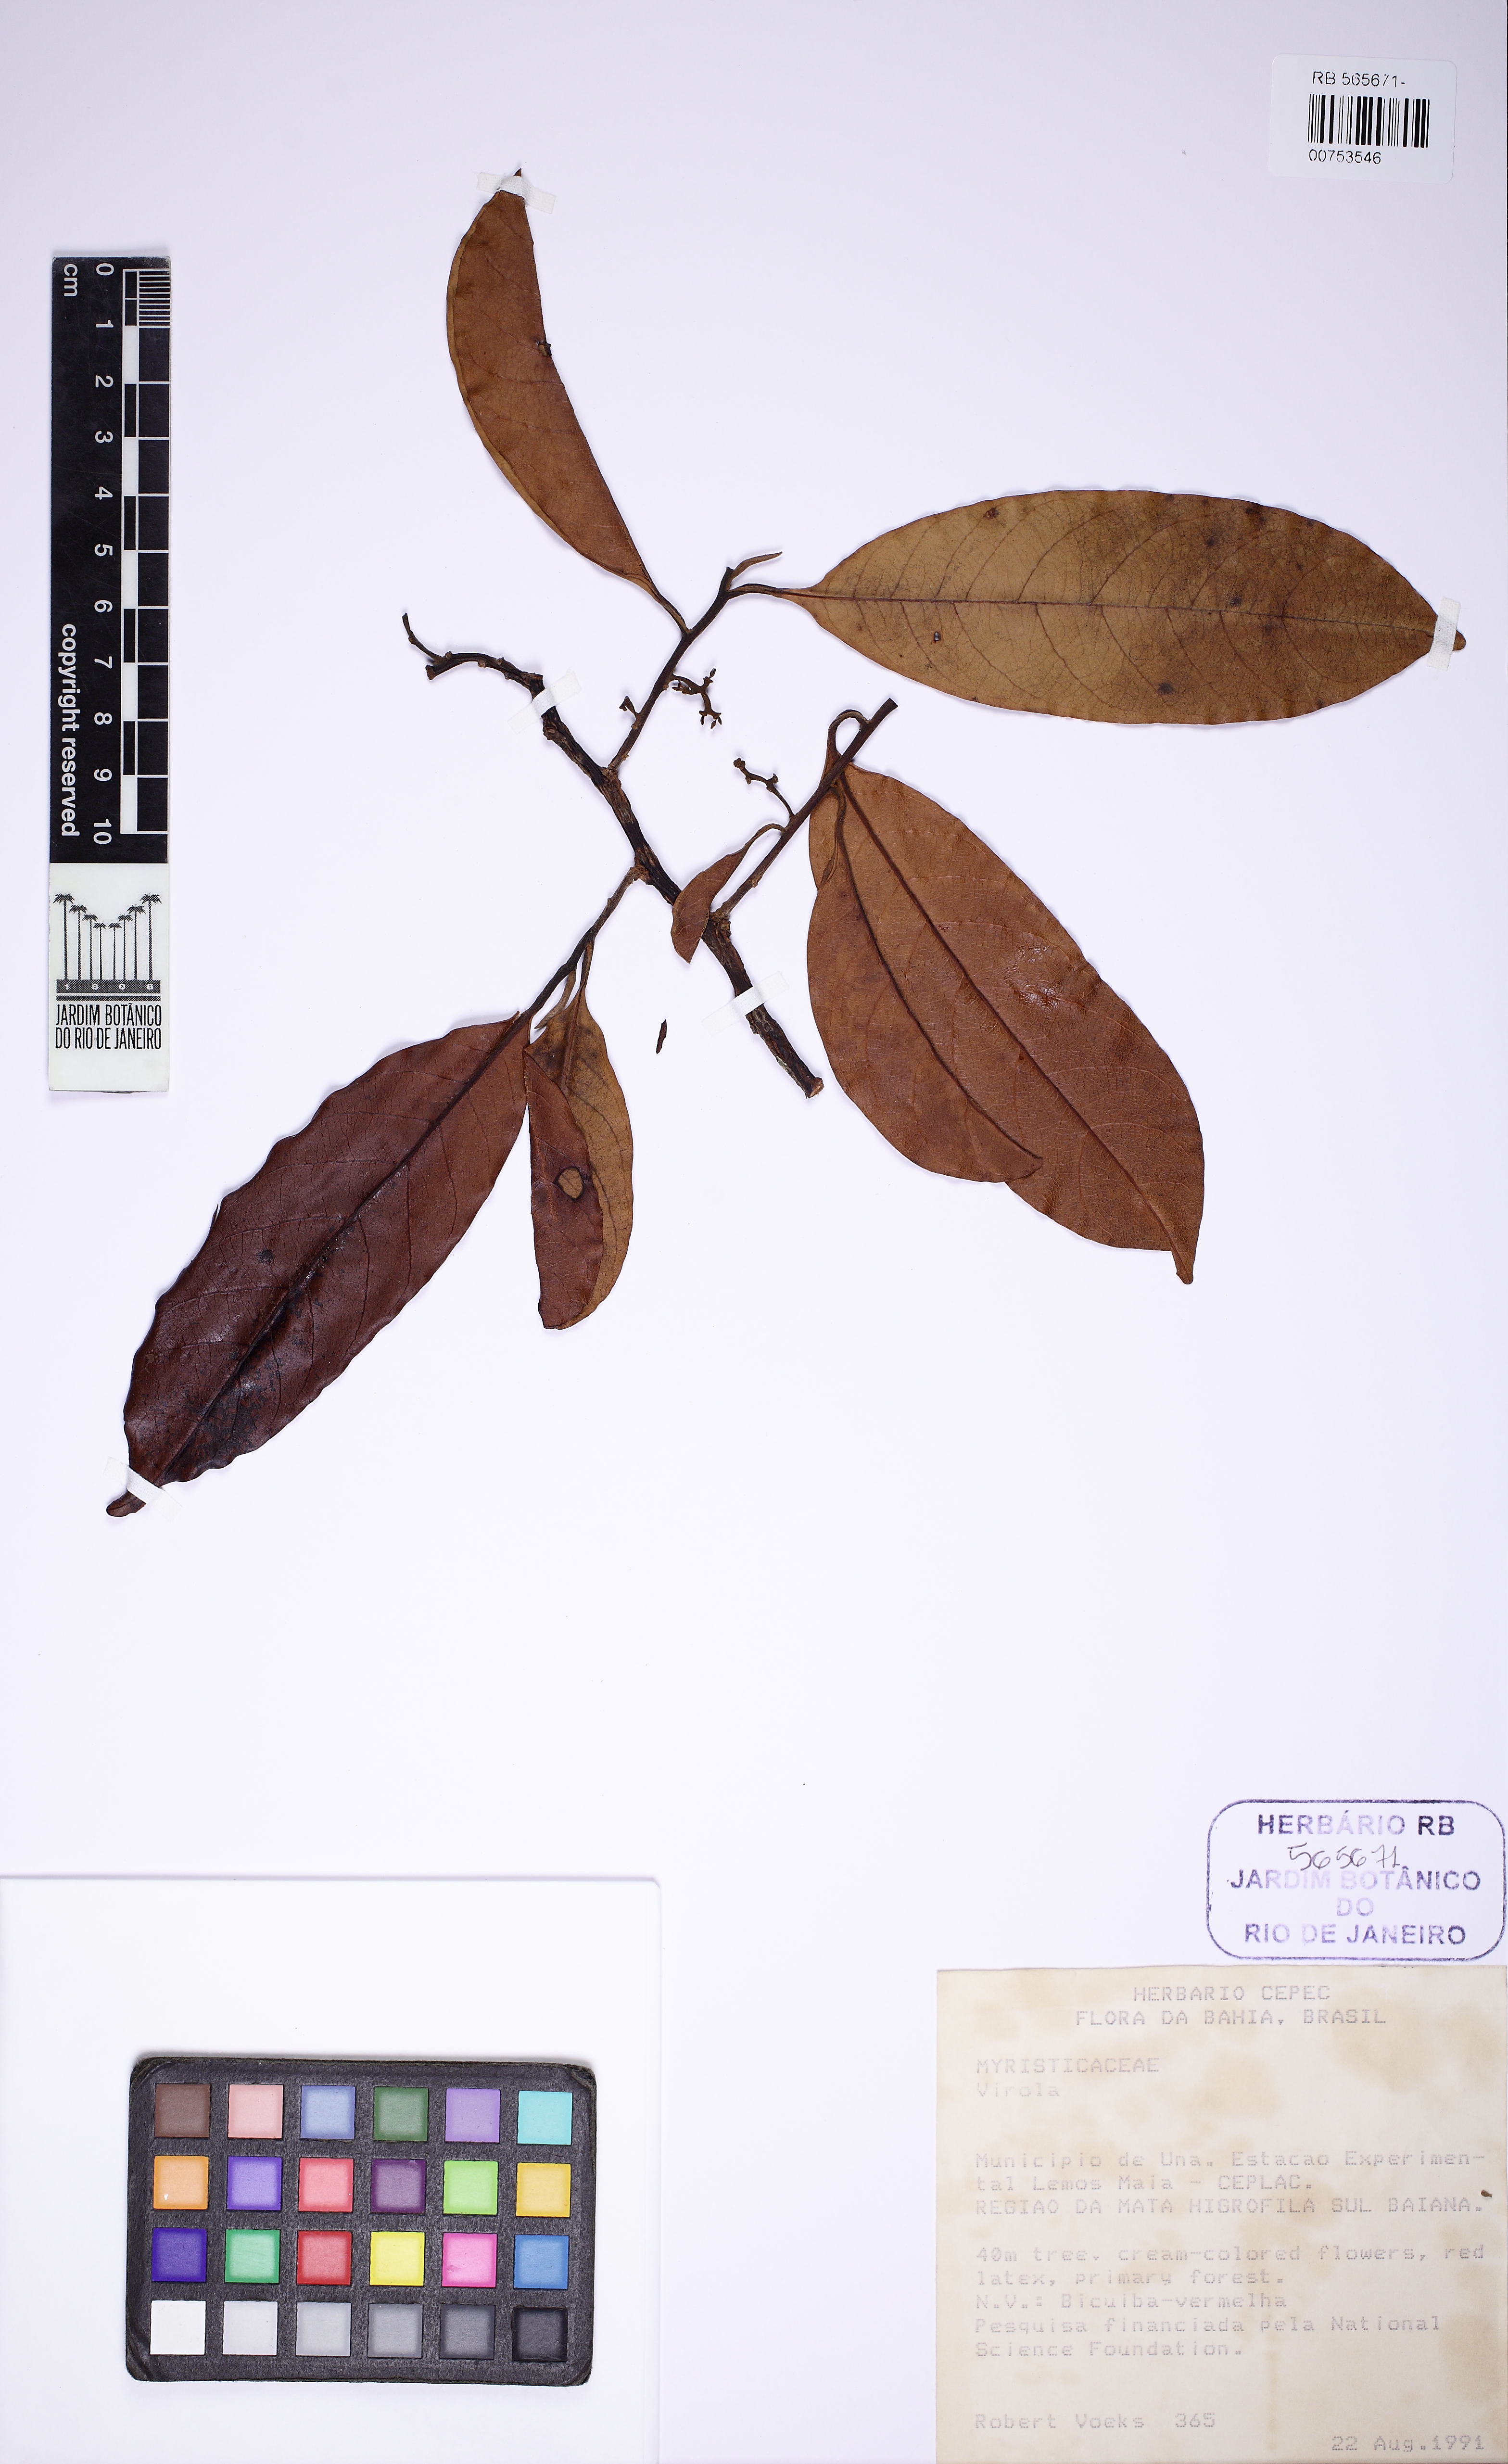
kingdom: Plantae
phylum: Tracheophyta
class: Magnoliopsida
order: Magnoliales
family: Myristicaceae
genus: Virola
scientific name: Virola
